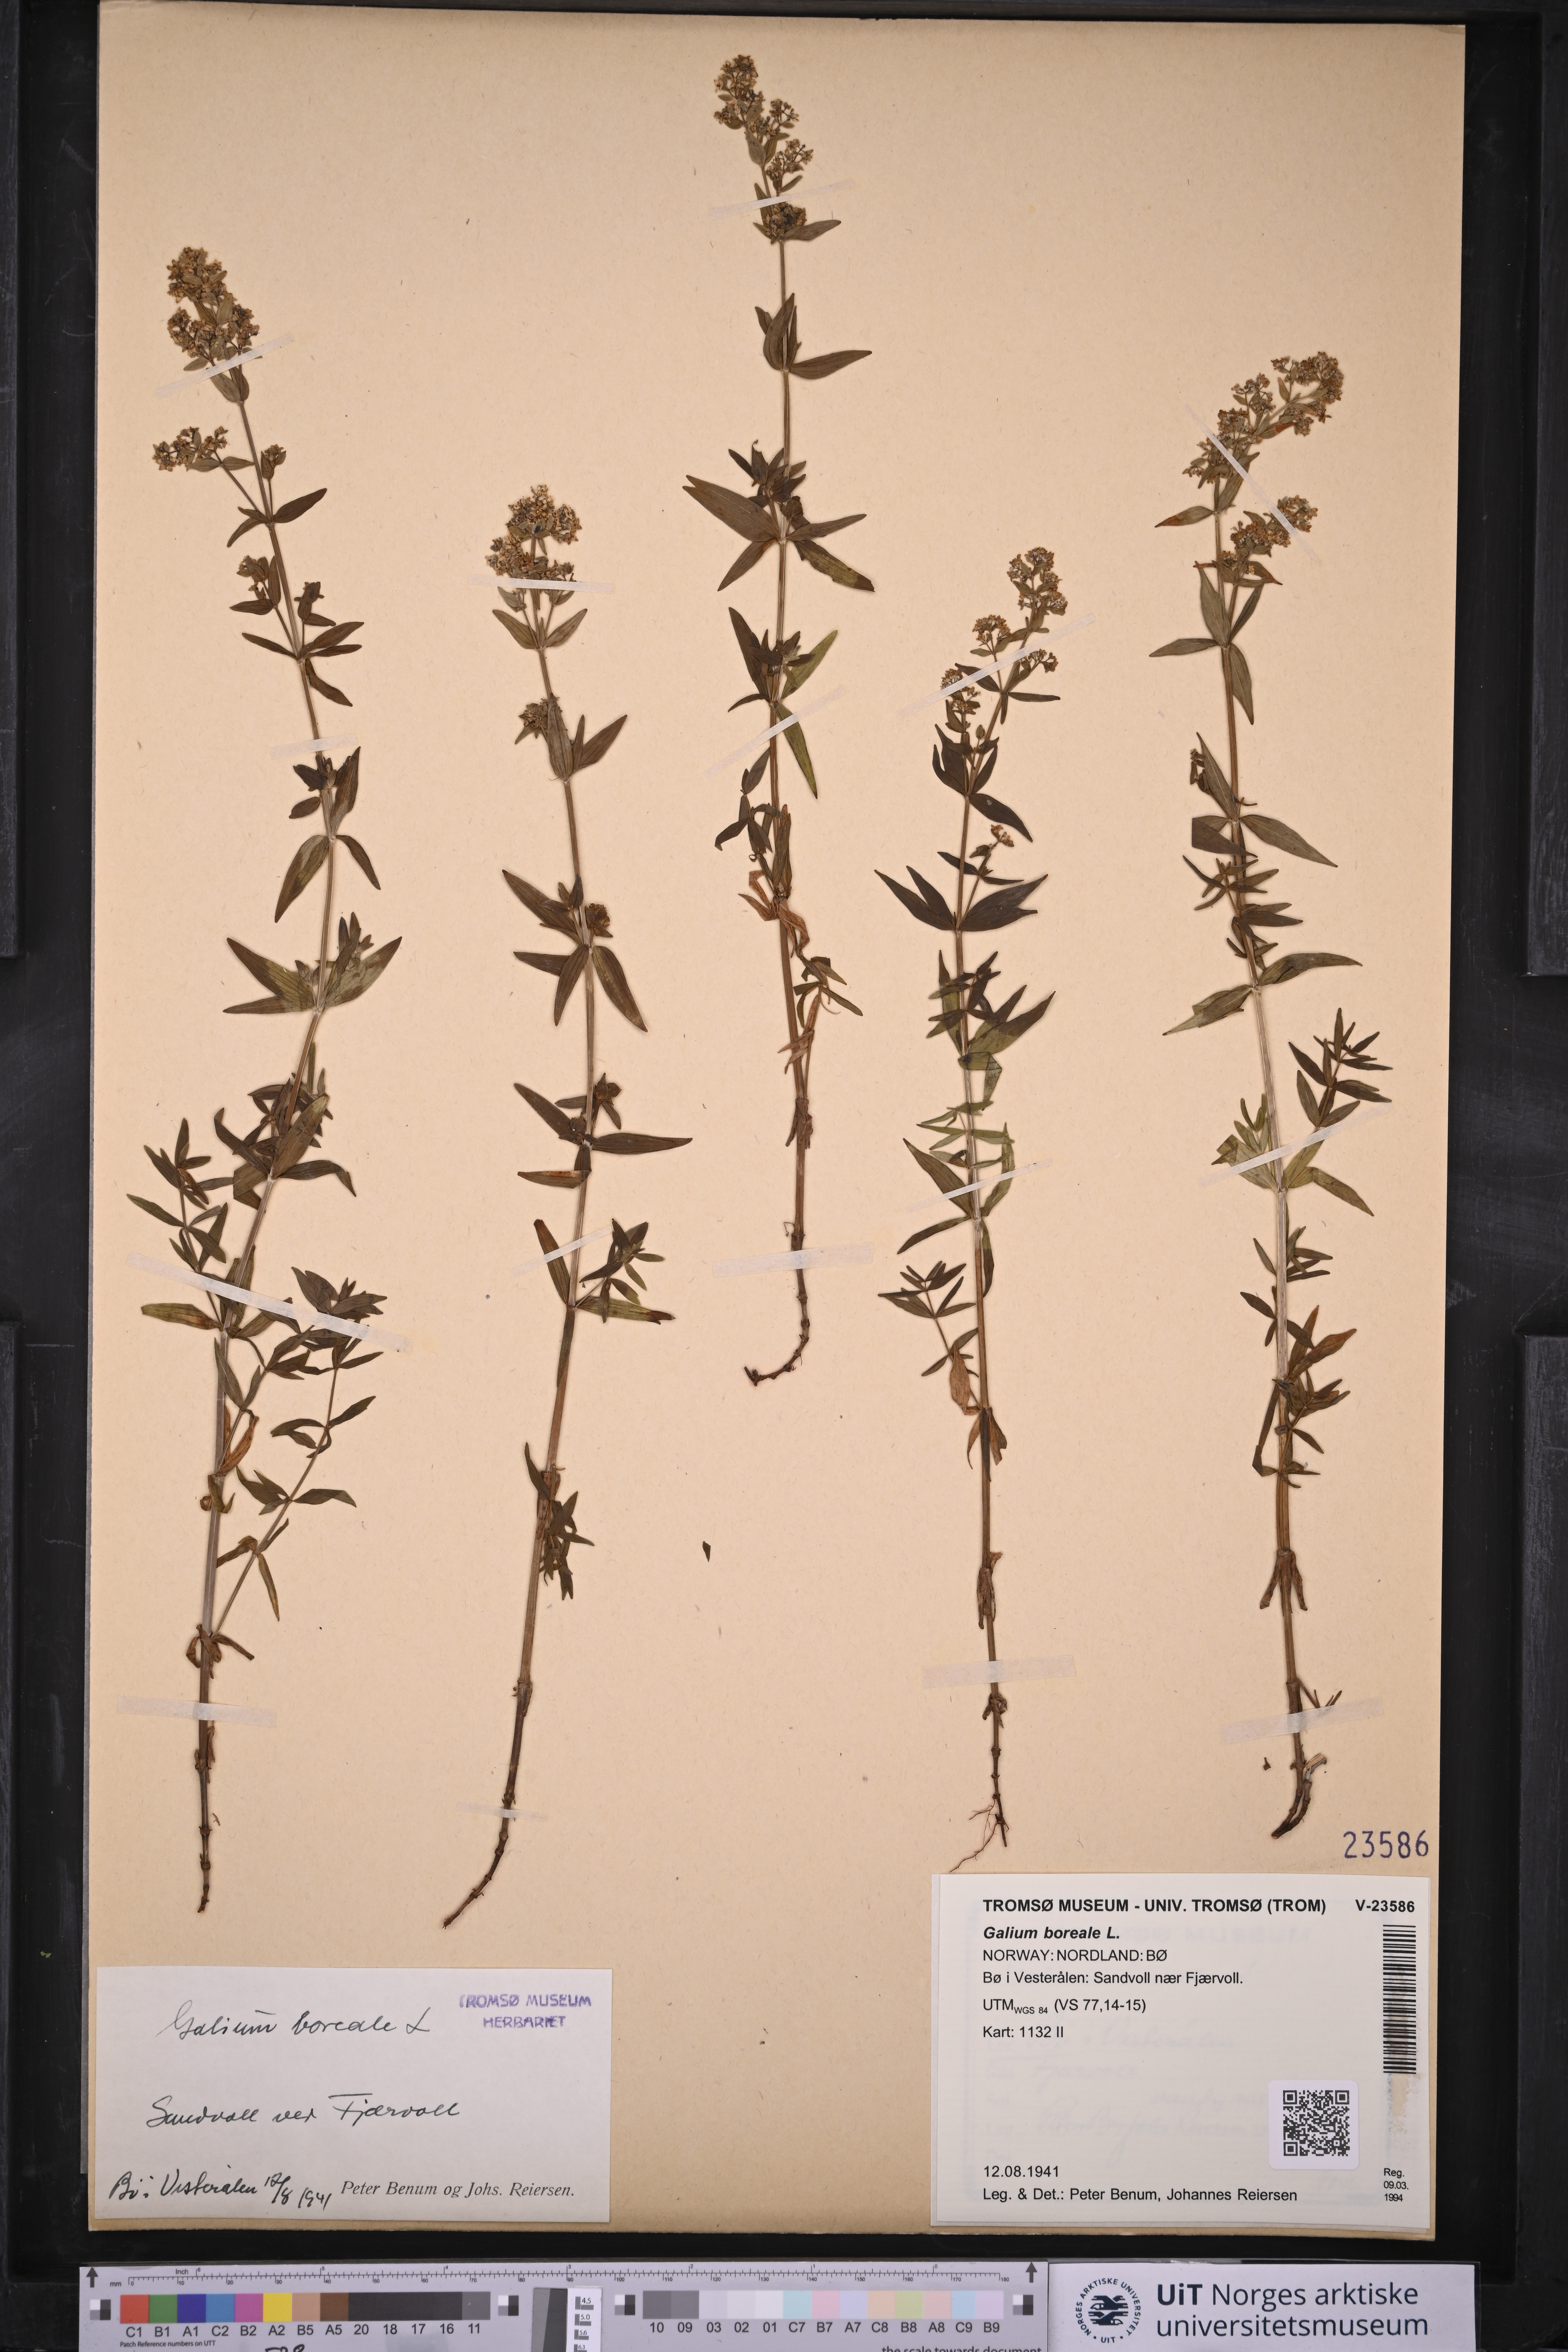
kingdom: Plantae
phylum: Tracheophyta
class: Magnoliopsida
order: Gentianales
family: Rubiaceae
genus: Galium
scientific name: Galium boreale
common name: Northern bedstraw
